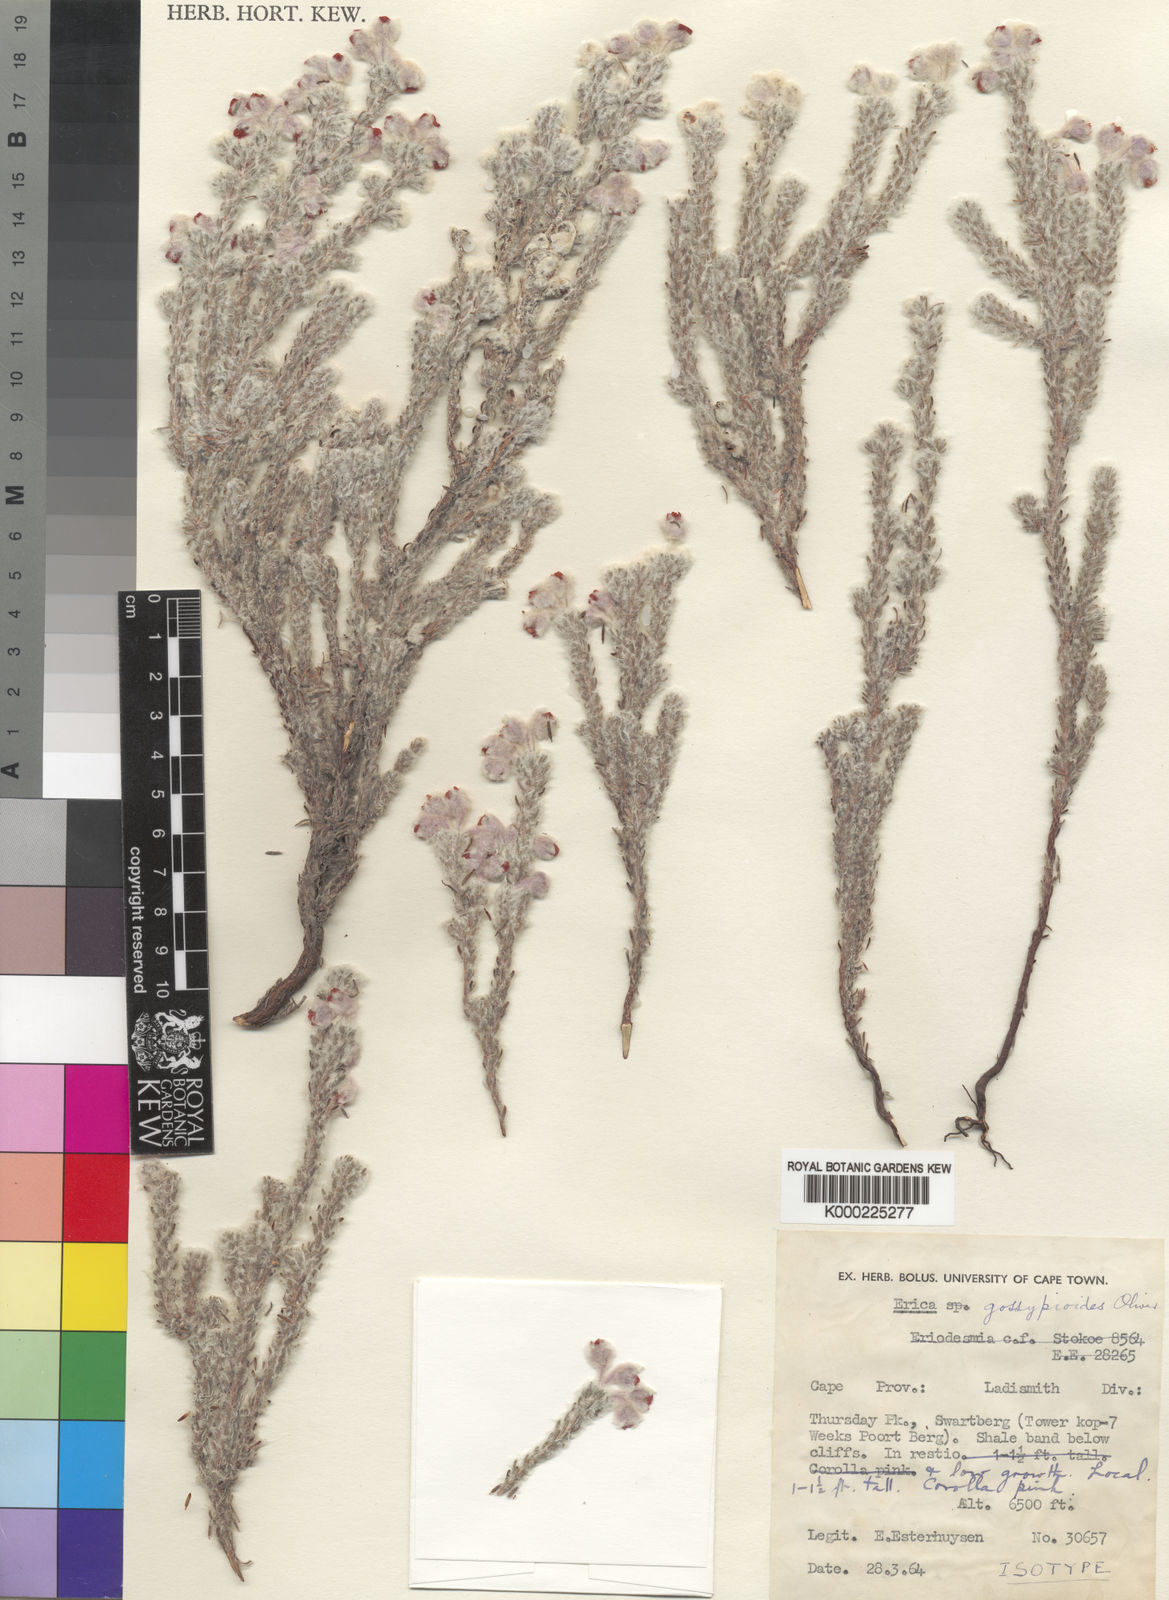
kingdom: Plantae
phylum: Tracheophyta
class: Magnoliopsida
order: Ericales
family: Ericaceae
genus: Erica
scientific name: Erica gossypioides
